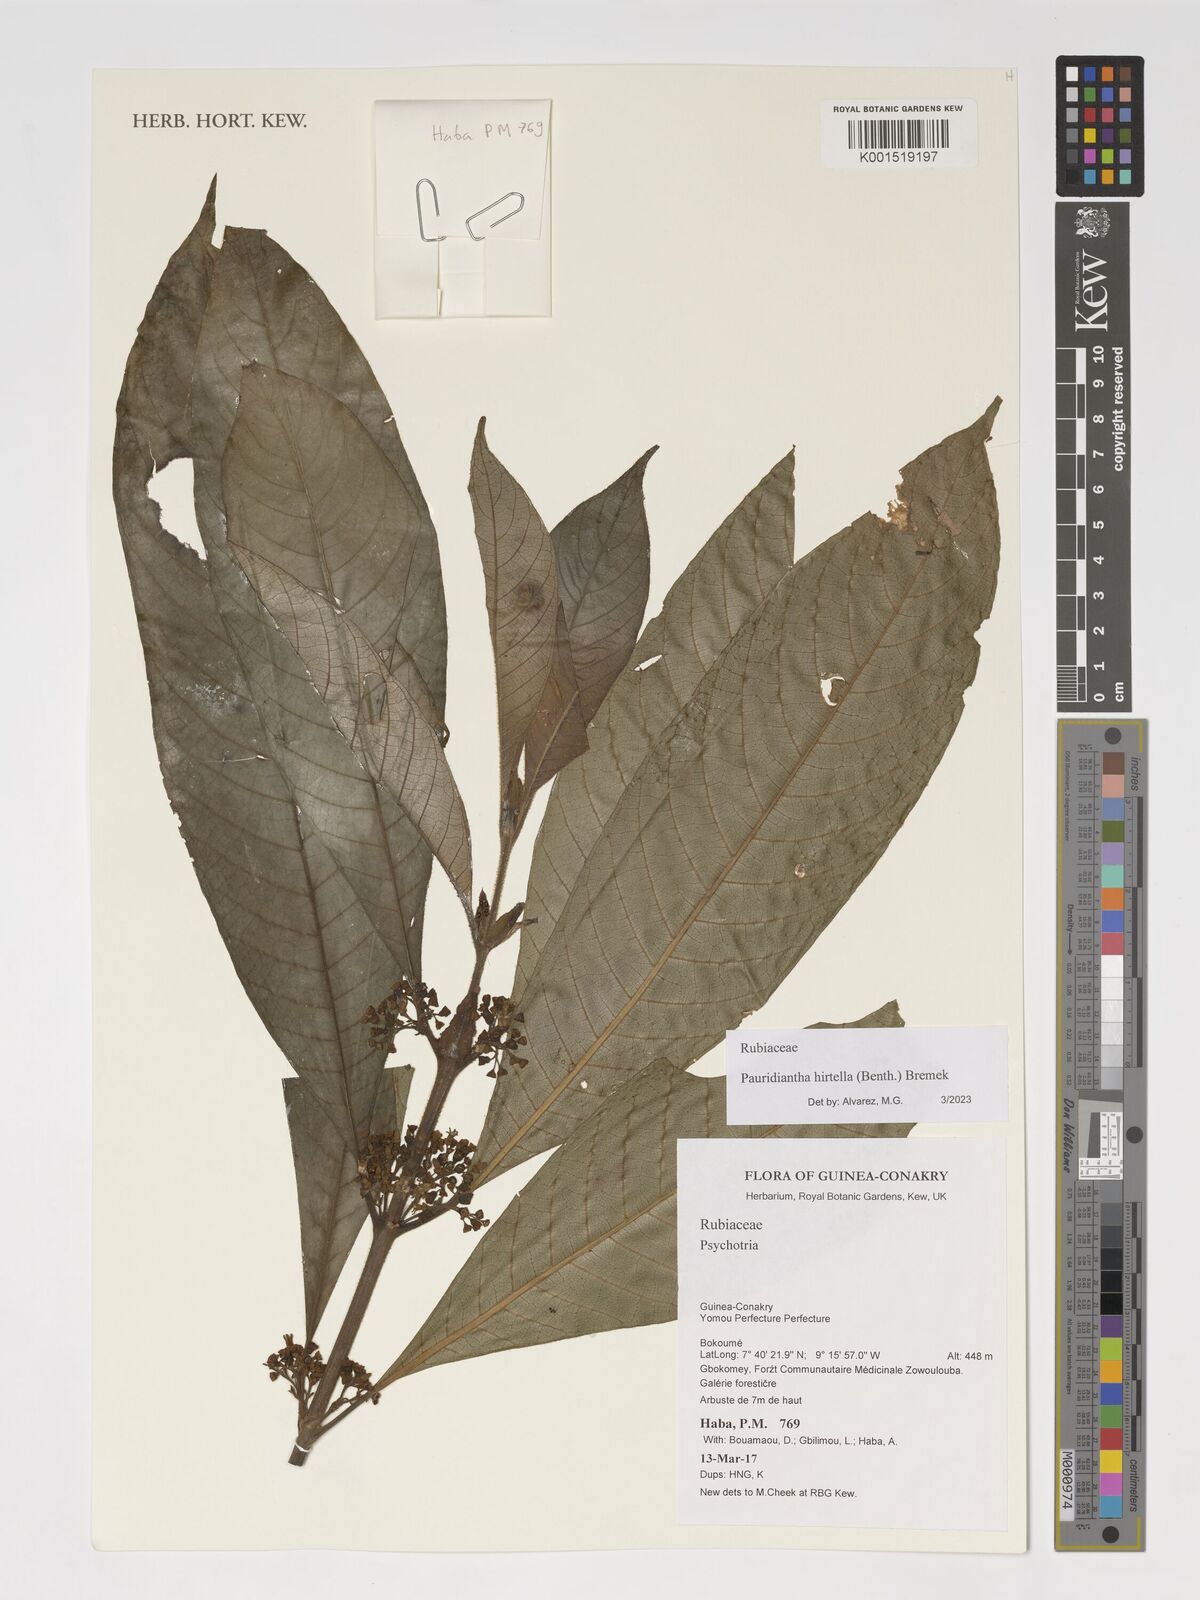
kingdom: Plantae
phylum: Tracheophyta
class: Magnoliopsida
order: Gentianales
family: Rubiaceae
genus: Pauridiantha
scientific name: Pauridiantha hirtella
